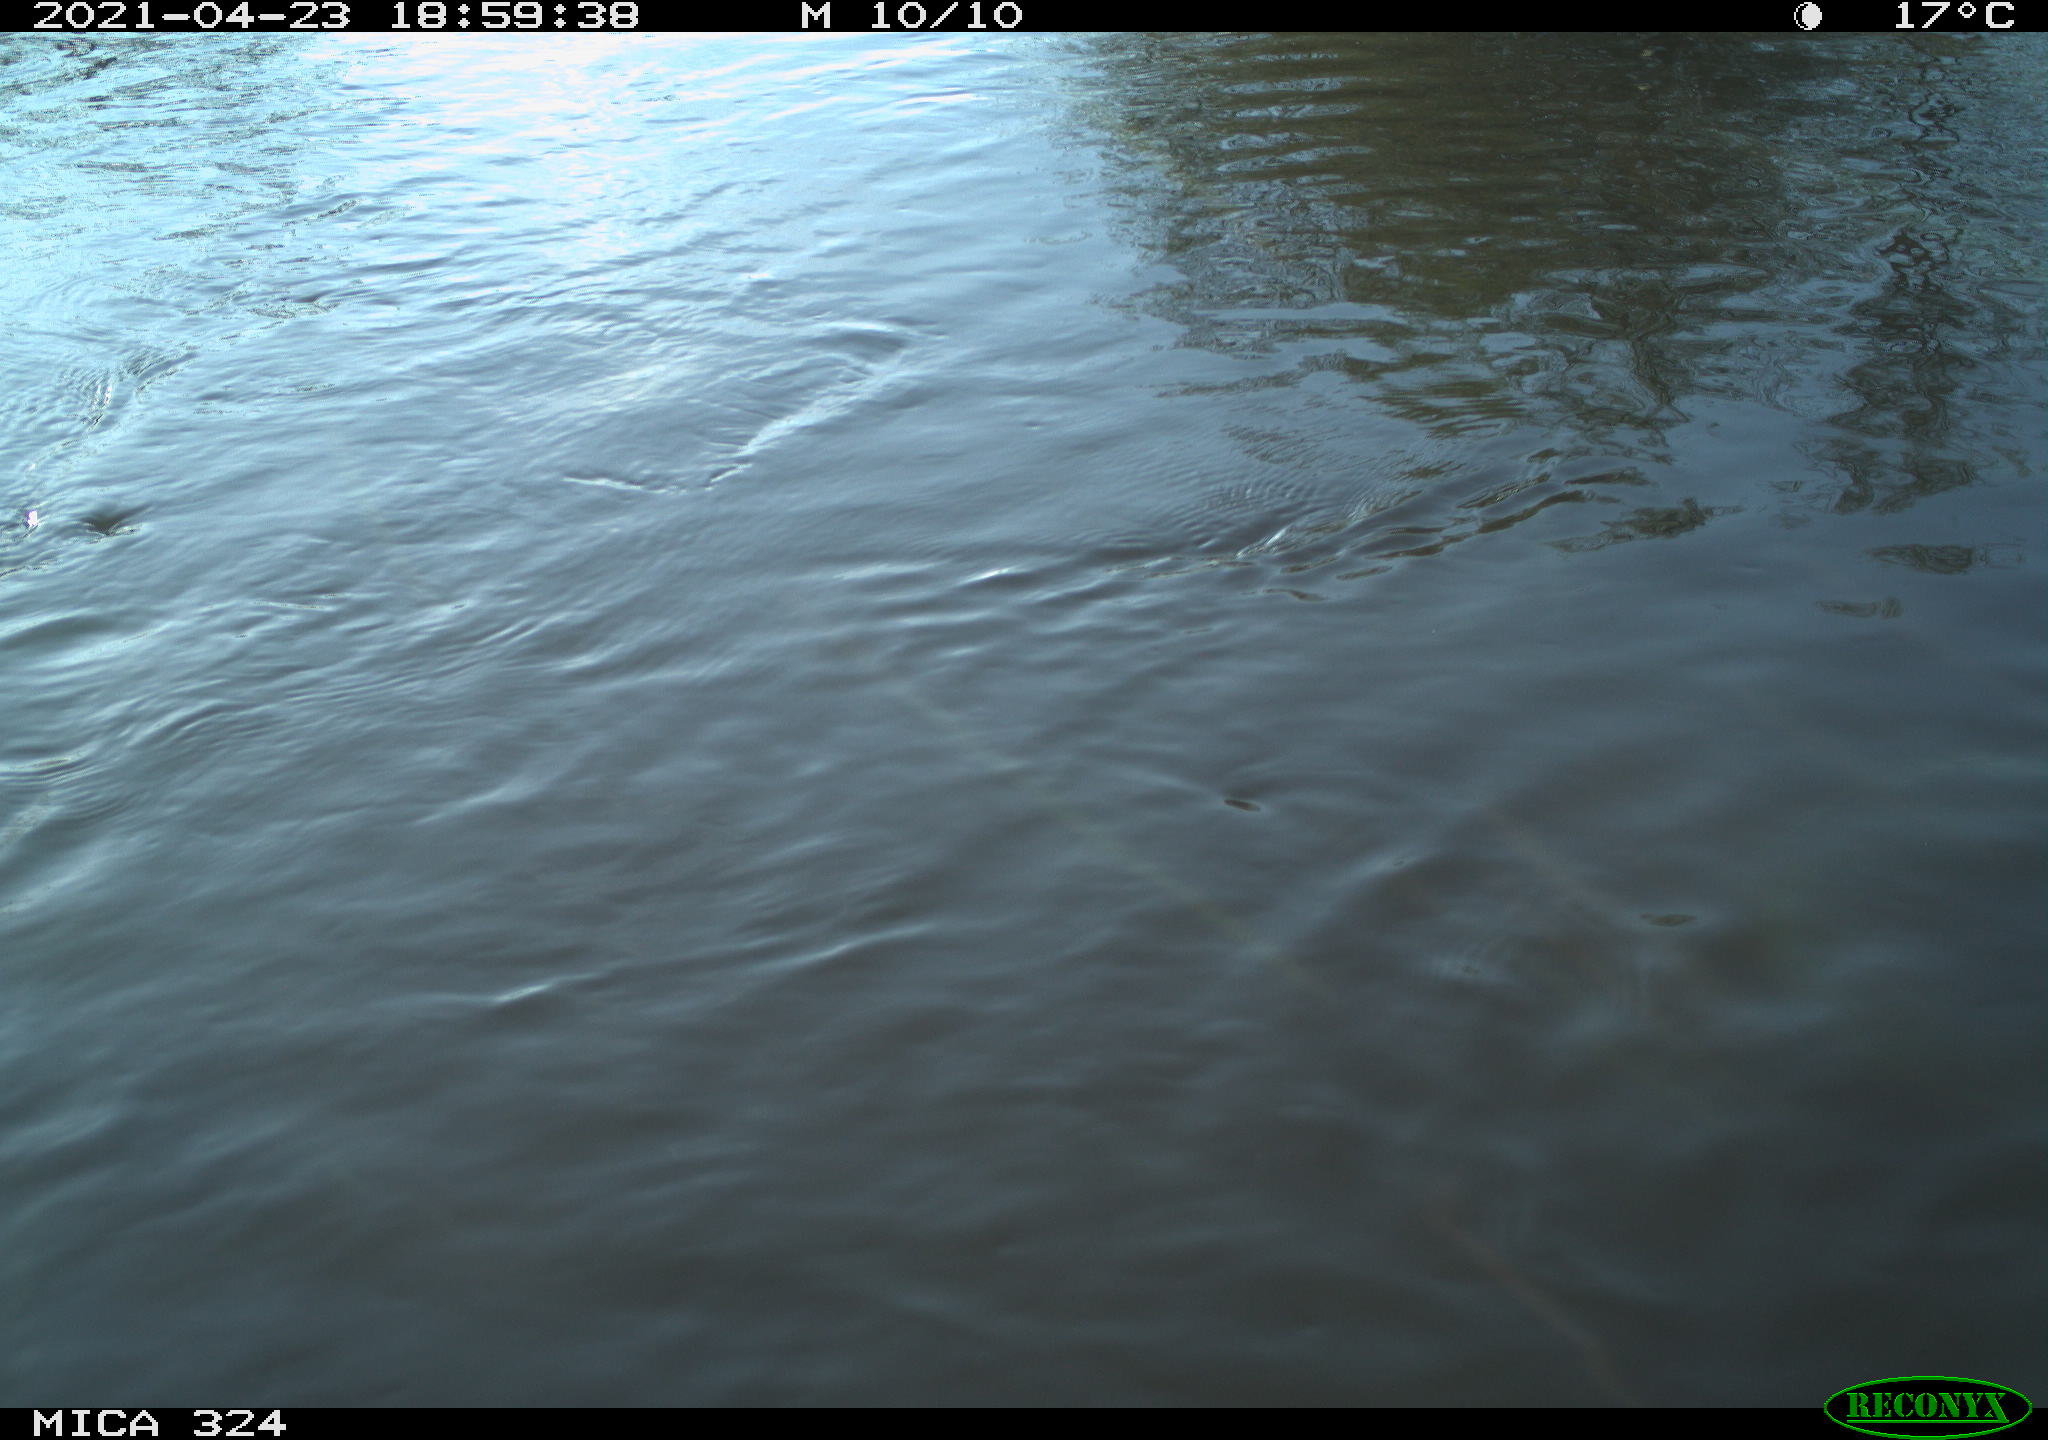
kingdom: Animalia
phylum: Chordata
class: Mammalia
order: Rodentia
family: Cricetidae
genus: Ondatra
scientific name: Ondatra zibethicus
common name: Muskrat
